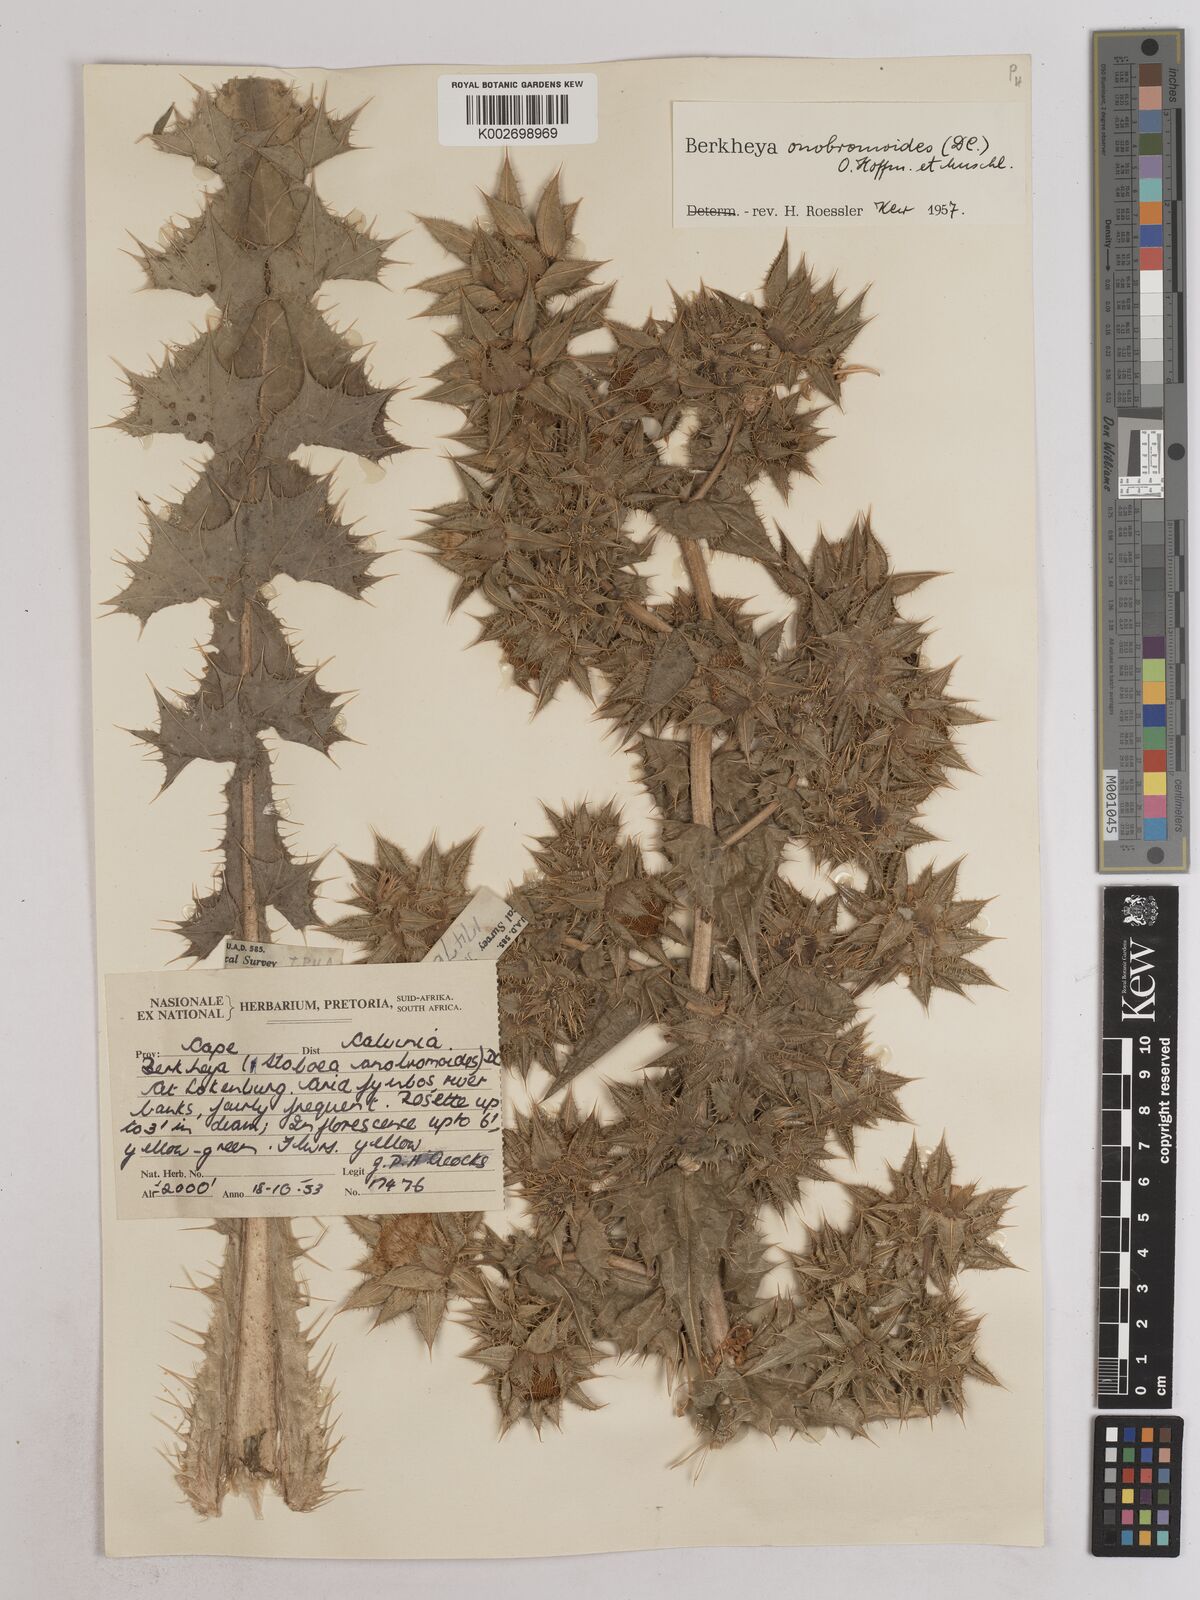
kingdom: Plantae
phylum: Tracheophyta
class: Magnoliopsida
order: Asterales
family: Asteraceae
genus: Berkheya
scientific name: Berkheya onobromoides
